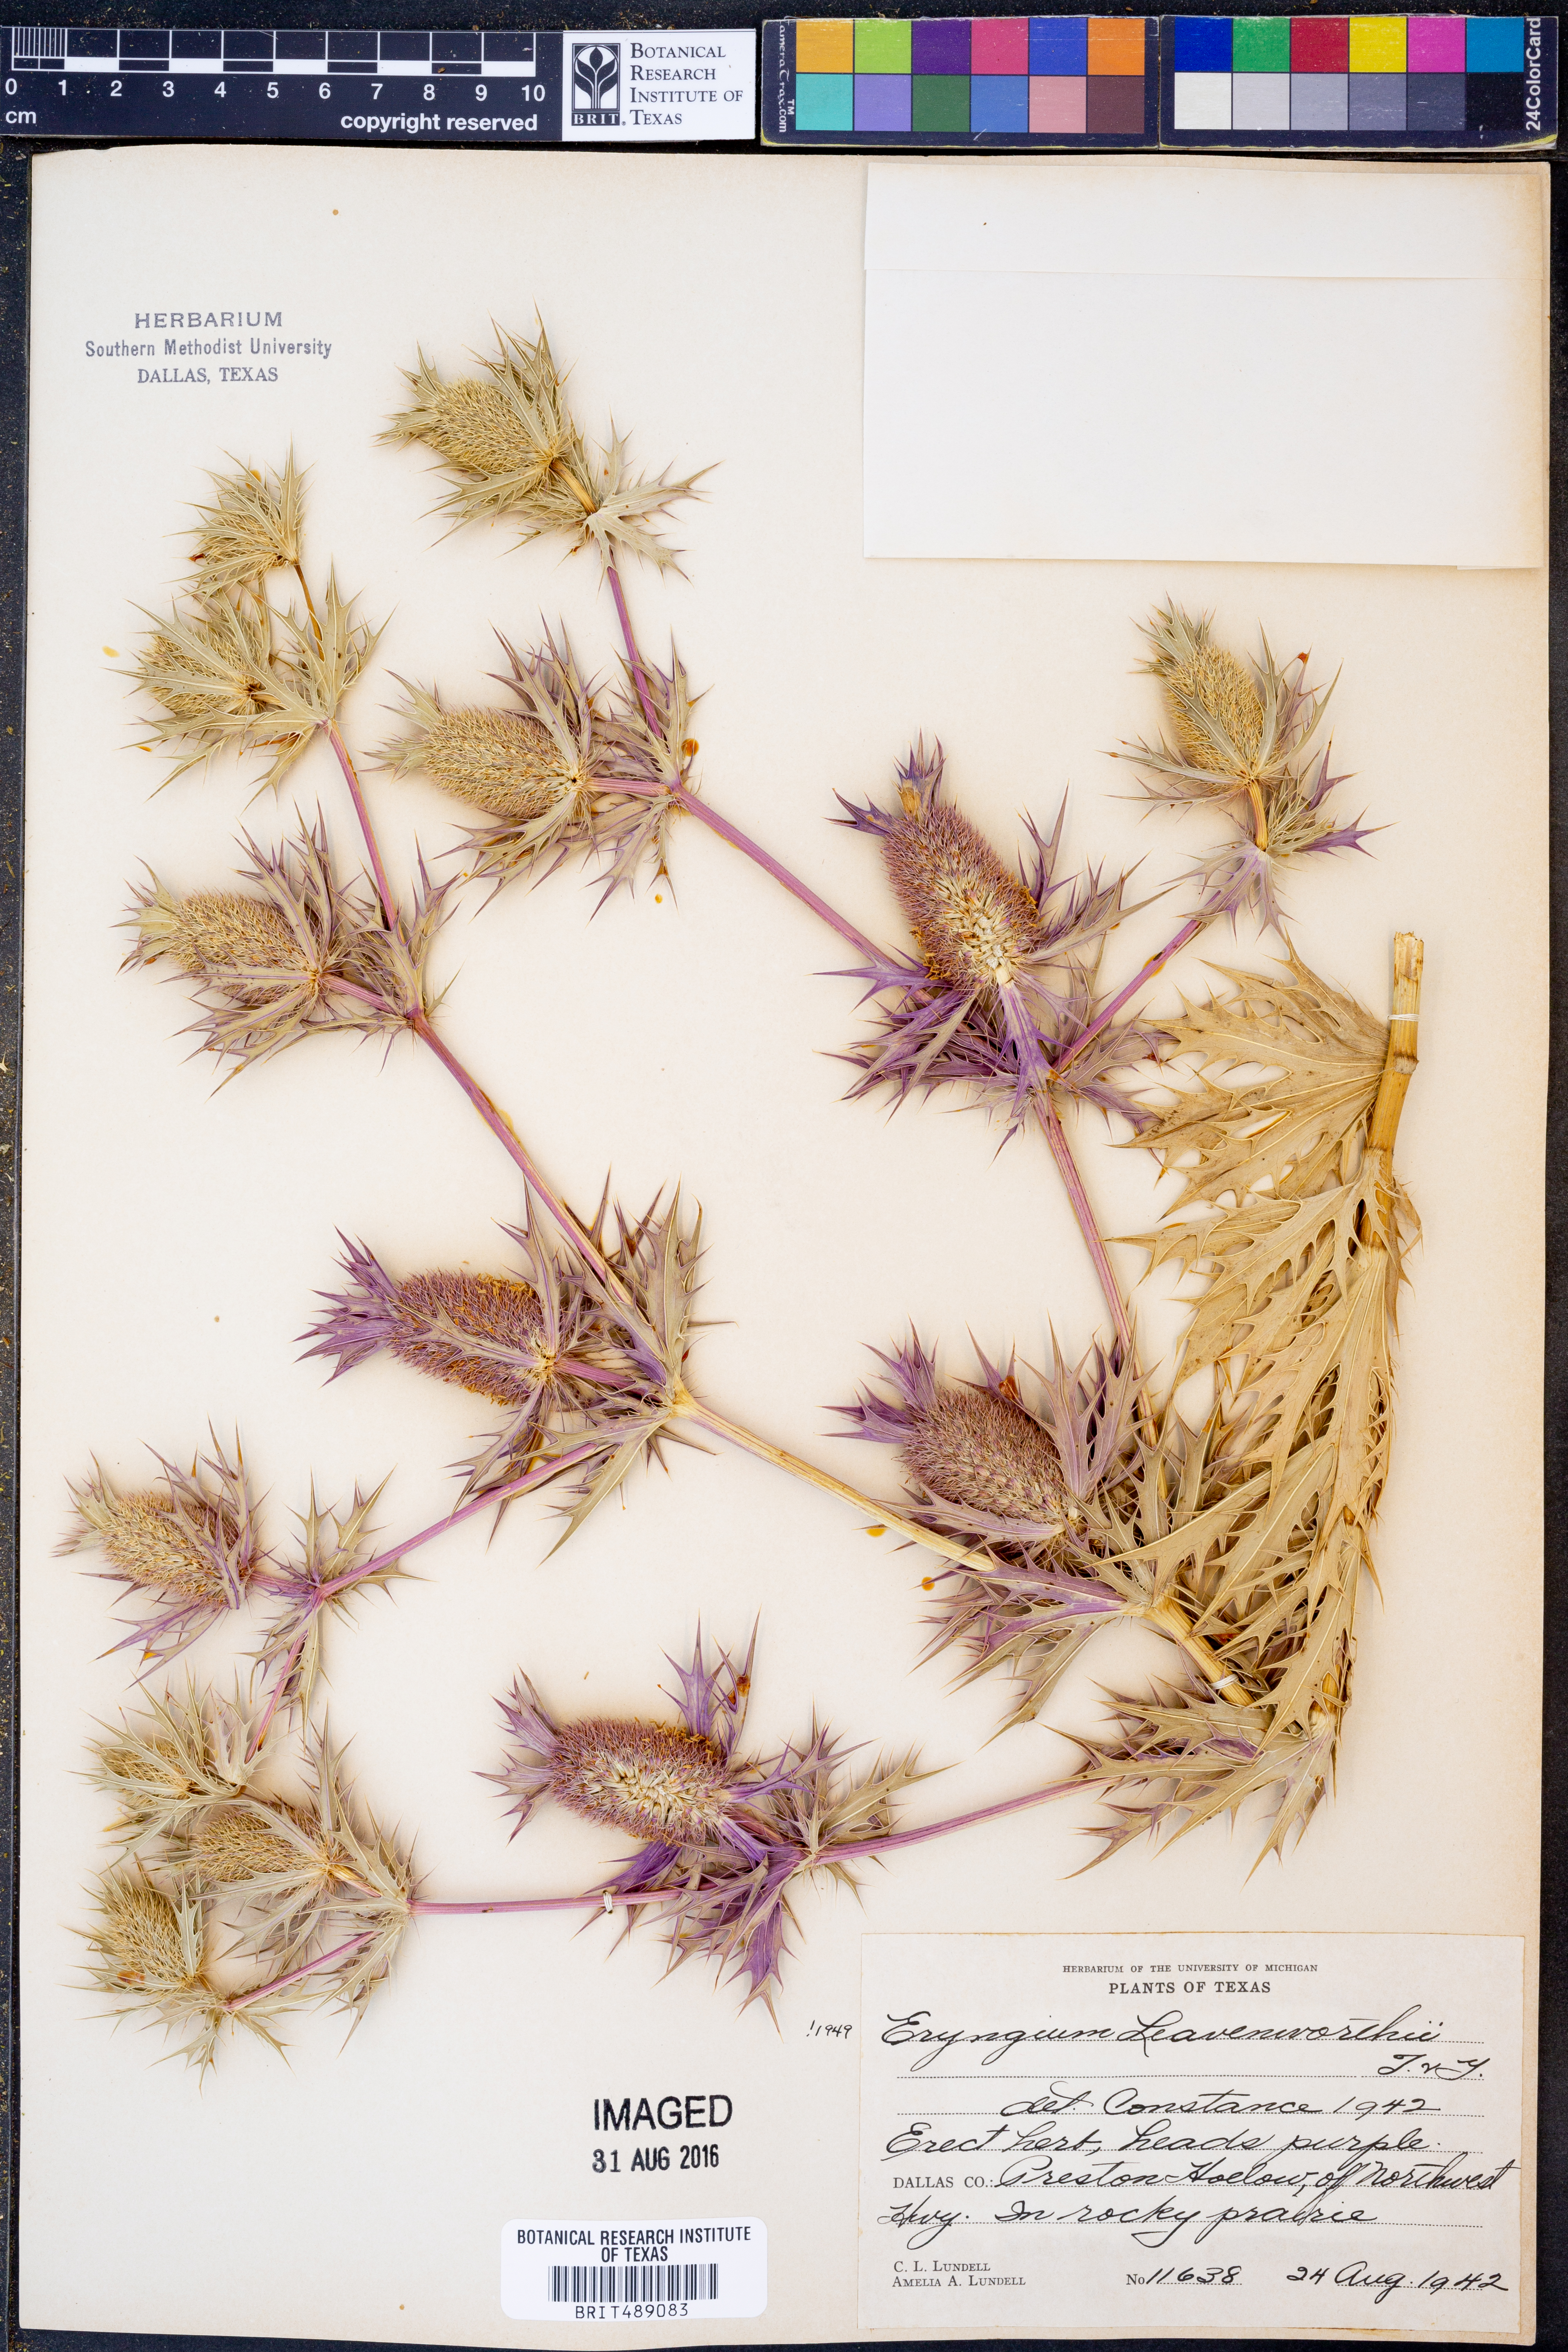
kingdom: Plantae
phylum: Tracheophyta
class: Magnoliopsida
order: Apiales
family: Apiaceae
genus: Eryngium
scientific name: Eryngium leavenworthii
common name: Leavenworth's eryngo
